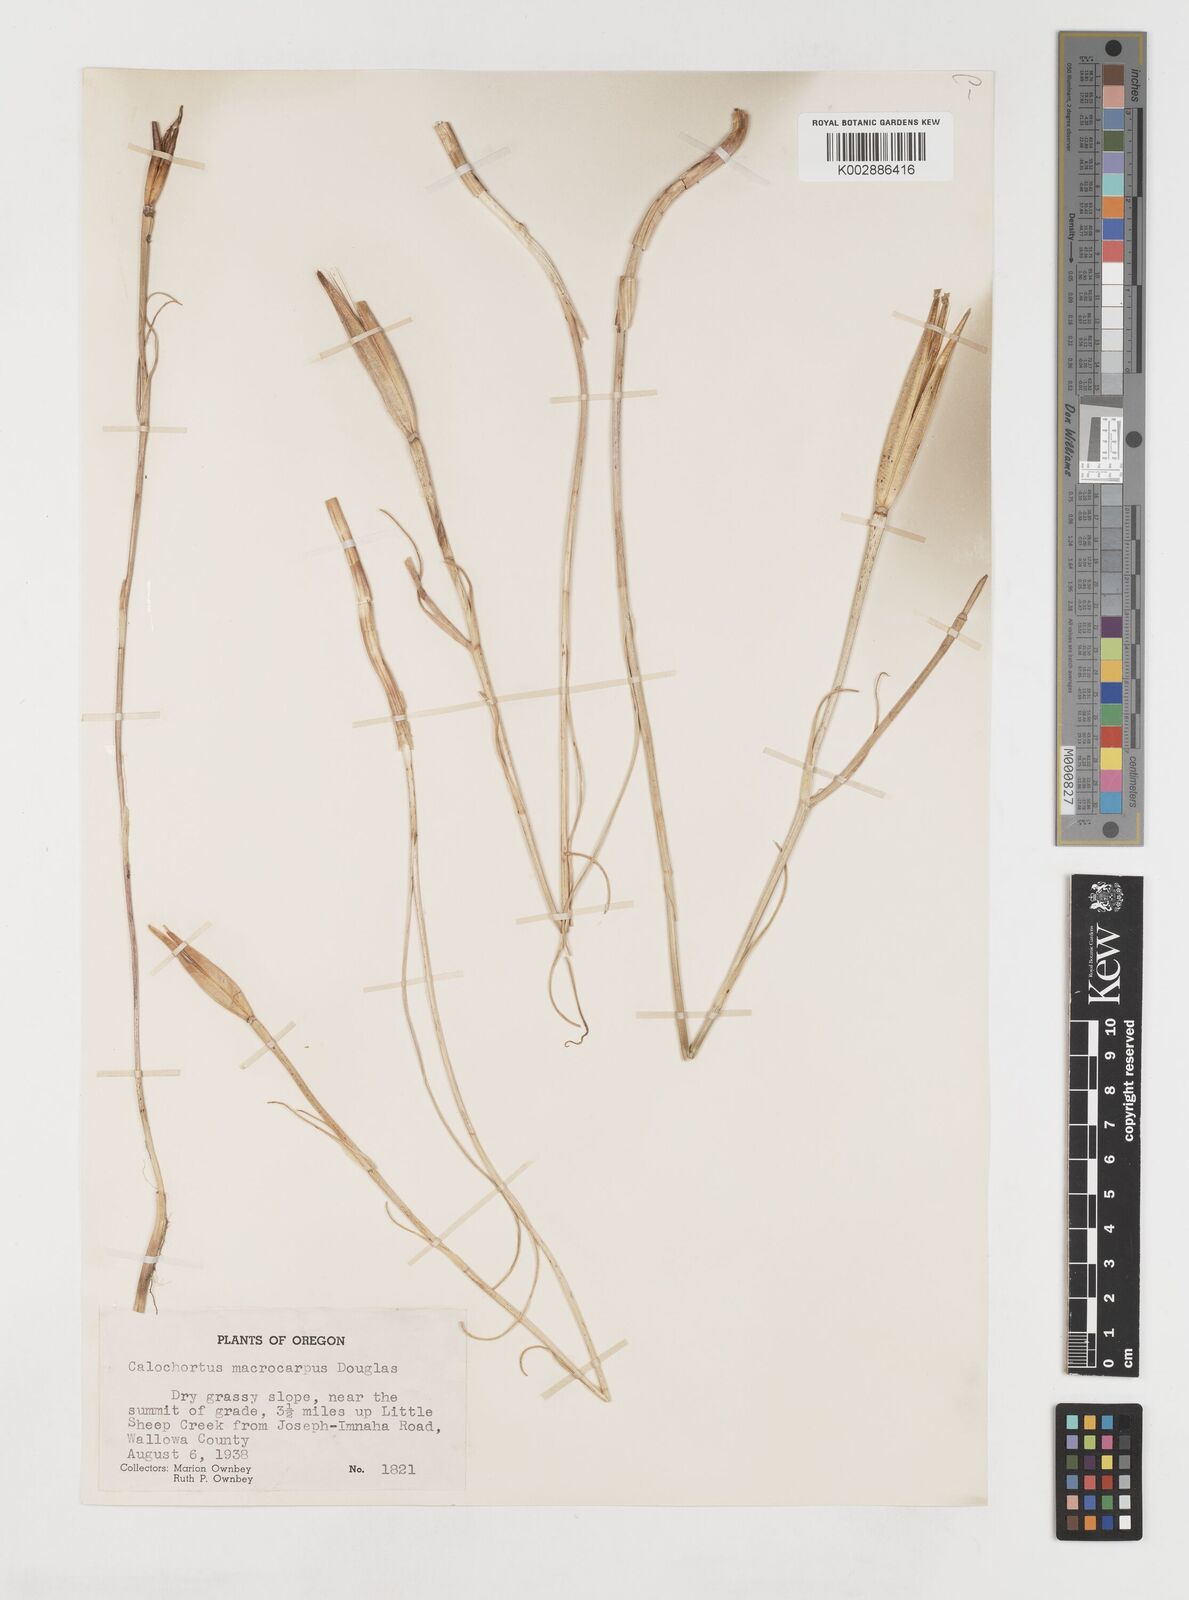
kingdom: Plantae
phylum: Tracheophyta
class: Liliopsida
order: Liliales
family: Liliaceae
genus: Calochortus
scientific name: Calochortus macrocarpus
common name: Green-band mariposa lily
